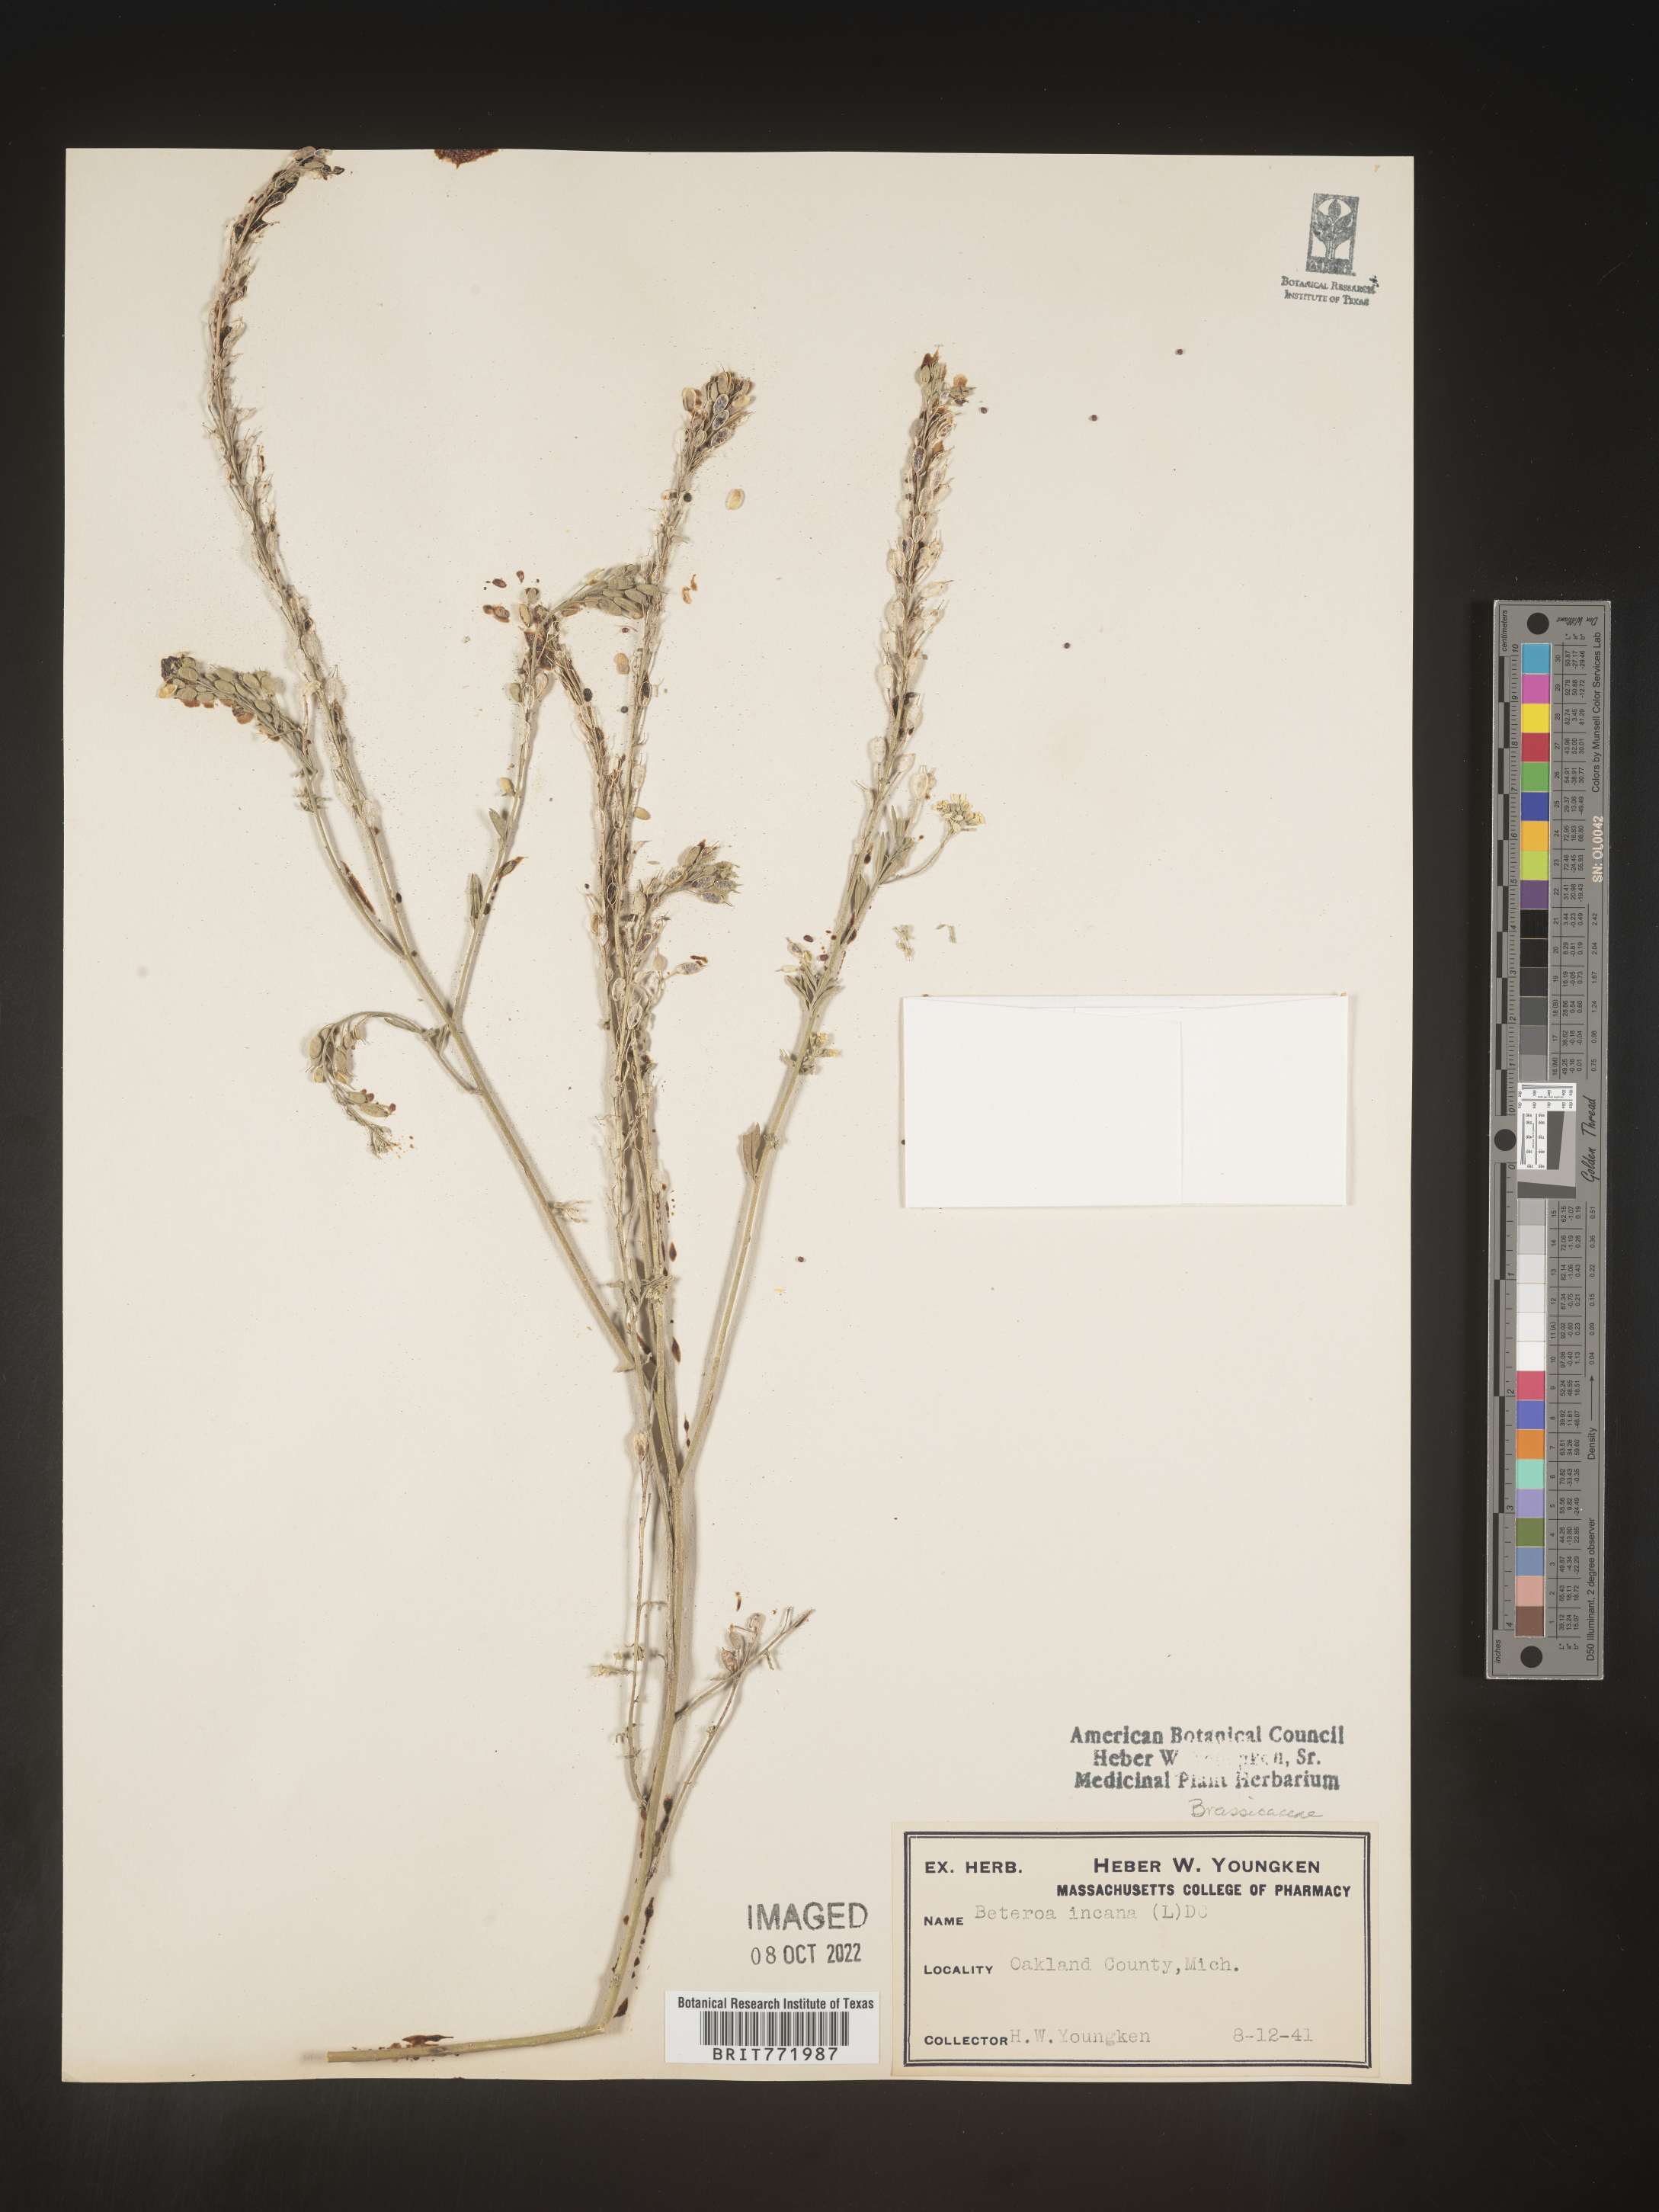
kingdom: Plantae
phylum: Tracheophyta
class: Magnoliopsida
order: Brassicales
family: Brassicaceae
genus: Berteroa
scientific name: Berteroa incana
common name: Hoary alison
